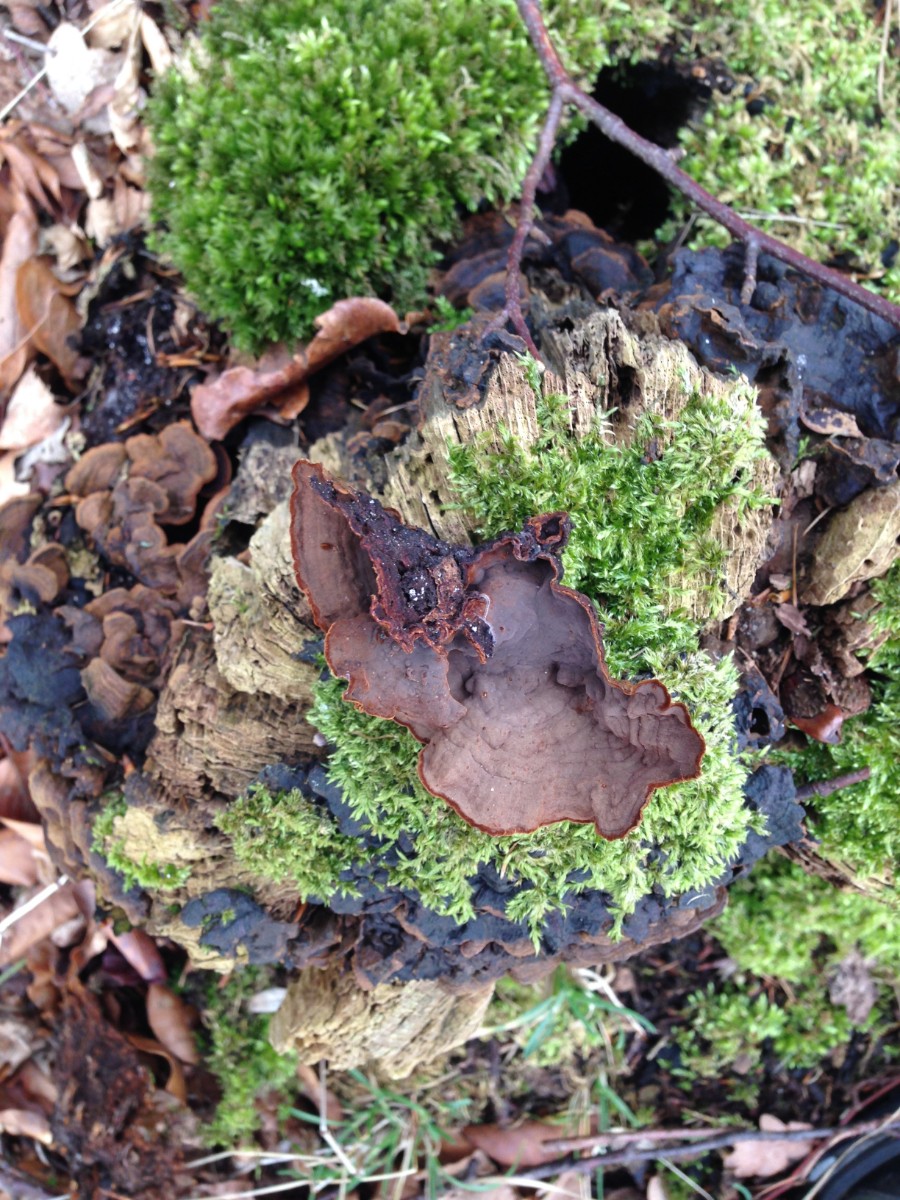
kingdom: Fungi
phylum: Basidiomycota
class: Agaricomycetes
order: Hymenochaetales
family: Hymenochaetaceae
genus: Hymenochaete
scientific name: Hymenochaete rubiginosa
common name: stiv ruslædersvamp
